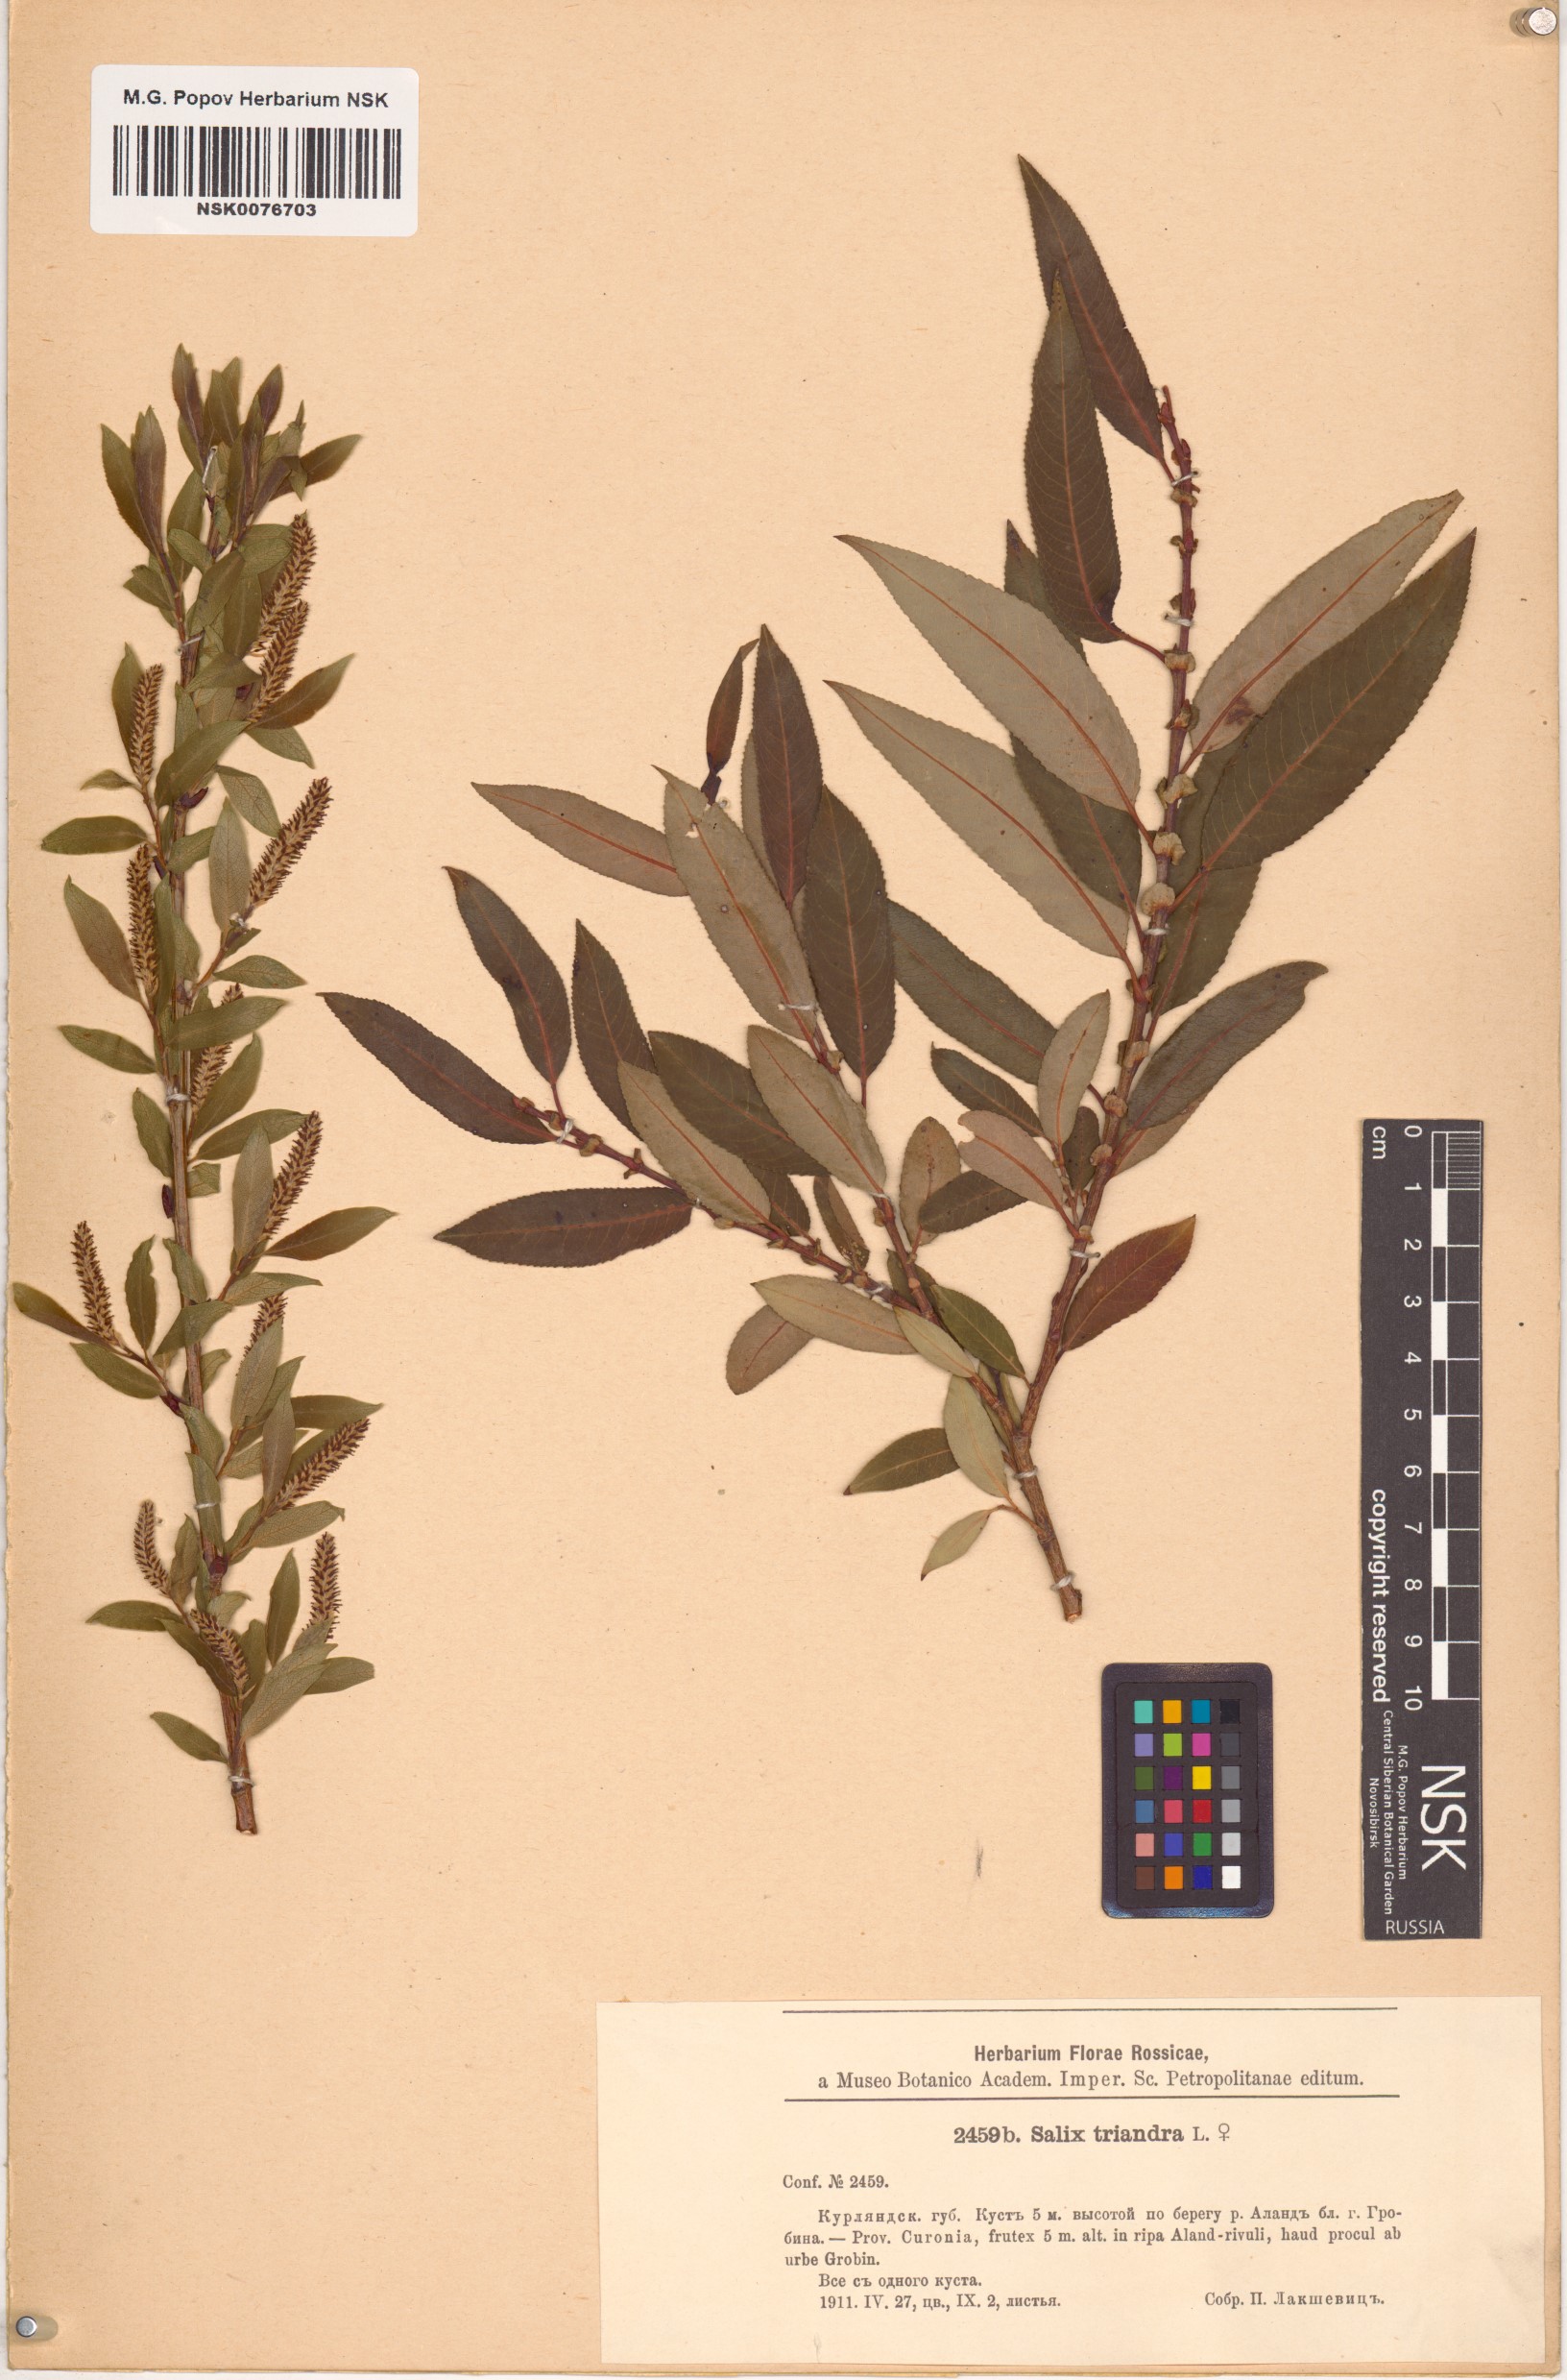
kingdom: Plantae
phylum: Tracheophyta
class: Magnoliopsida
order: Malpighiales
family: Salicaceae
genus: Salix
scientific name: Salix triandra
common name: Almond willow
